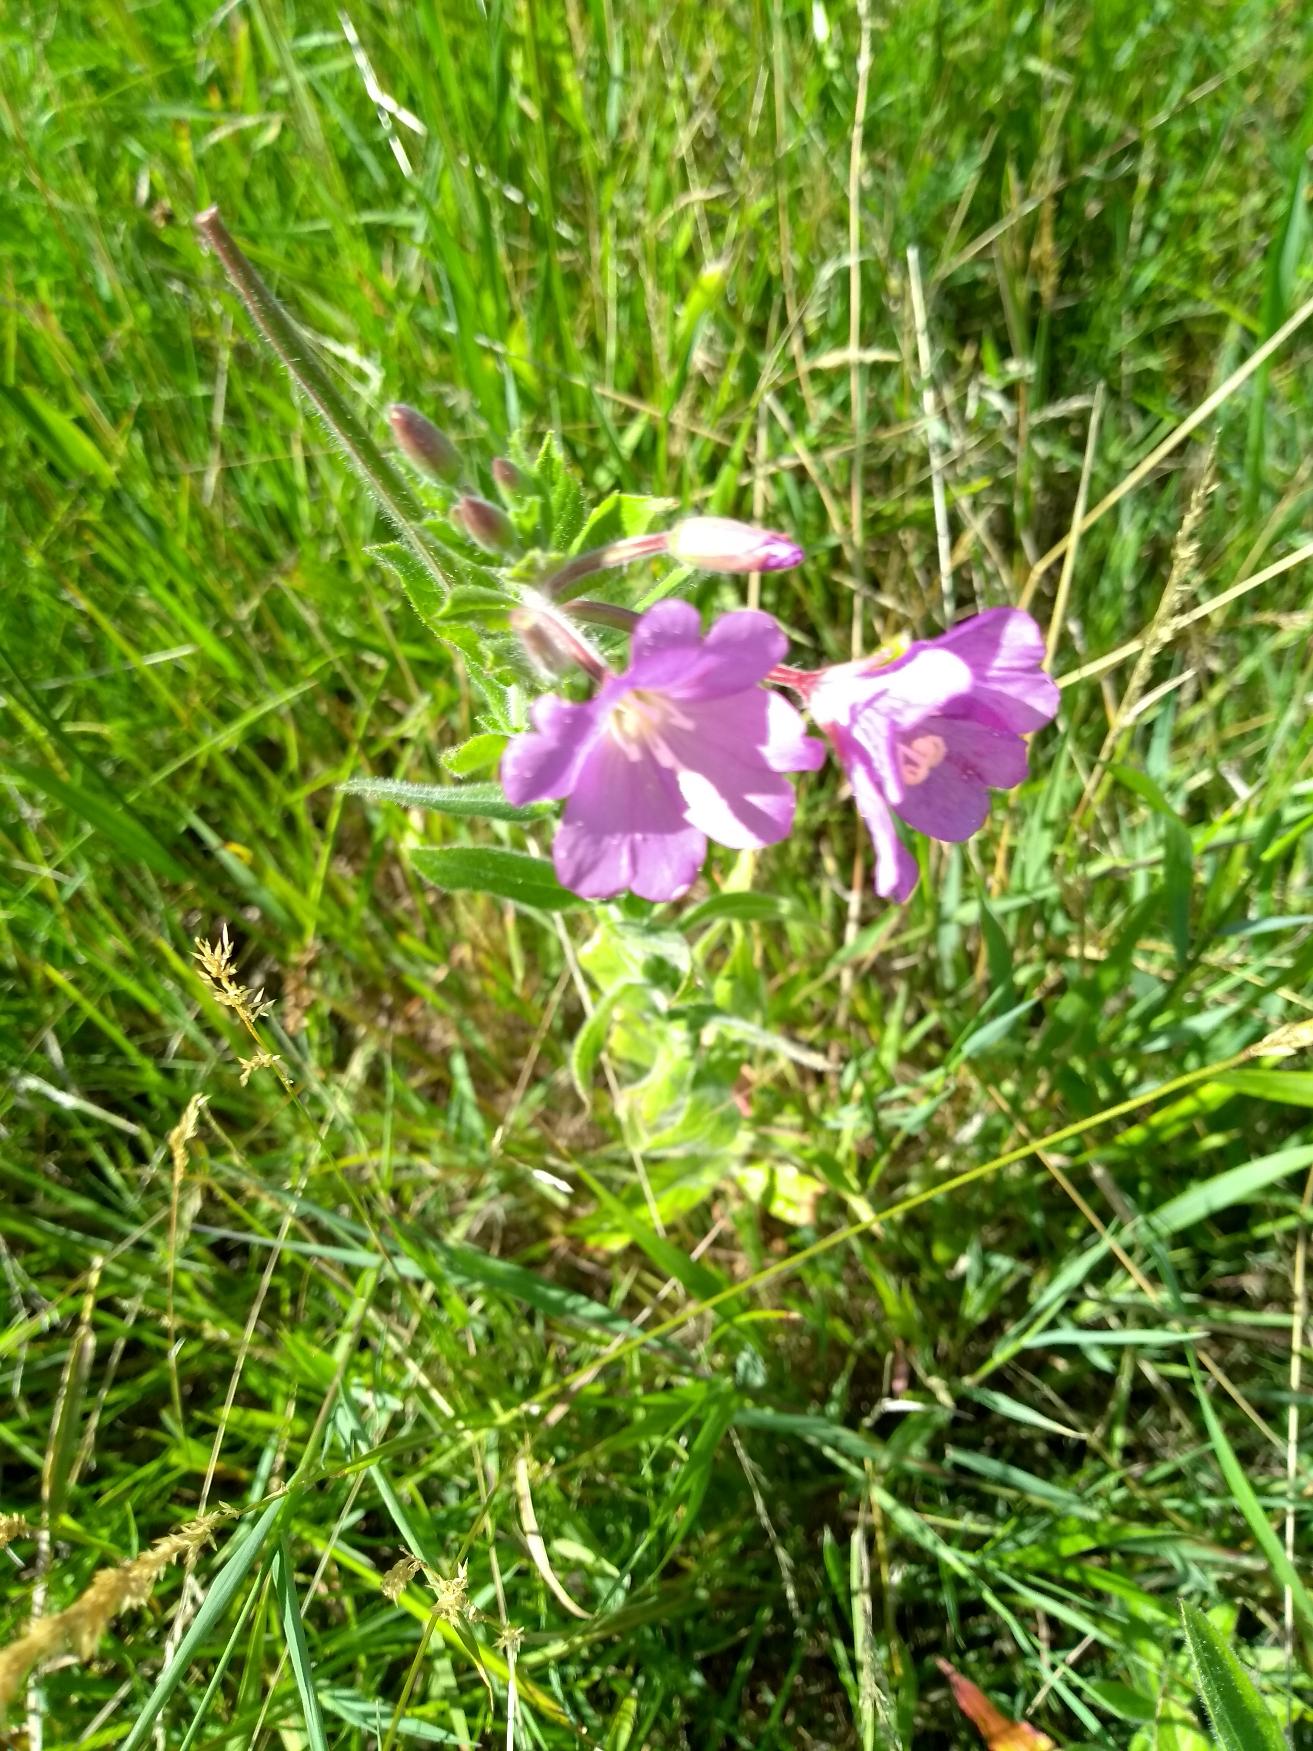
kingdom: Plantae
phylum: Tracheophyta
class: Magnoliopsida
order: Myrtales
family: Onagraceae
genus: Epilobium
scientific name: Epilobium hirsutum
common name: Lådden dueurt
